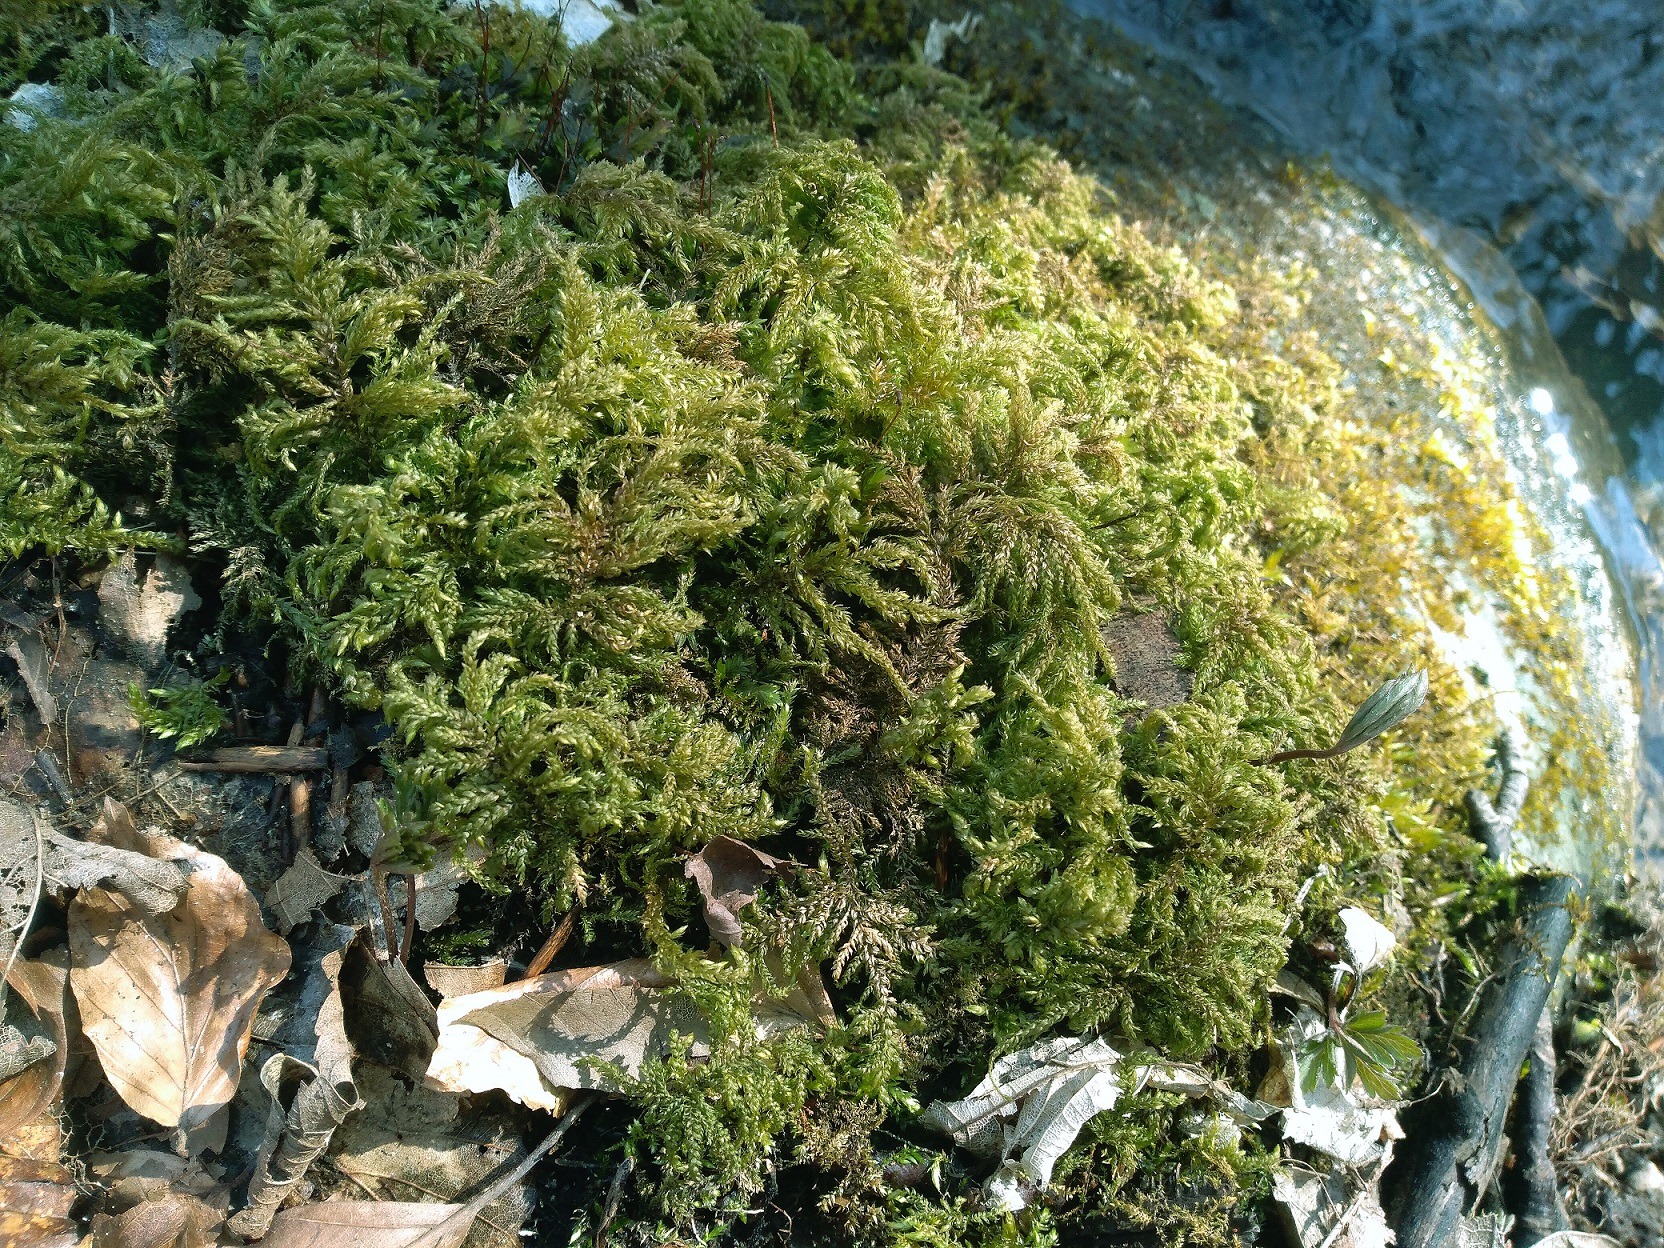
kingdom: Plantae
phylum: Bryophyta
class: Bryopsida
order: Hypnales
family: Neckeraceae
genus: Thamnobryum
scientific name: Thamnobryum alopecurum
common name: Mat bækkost
